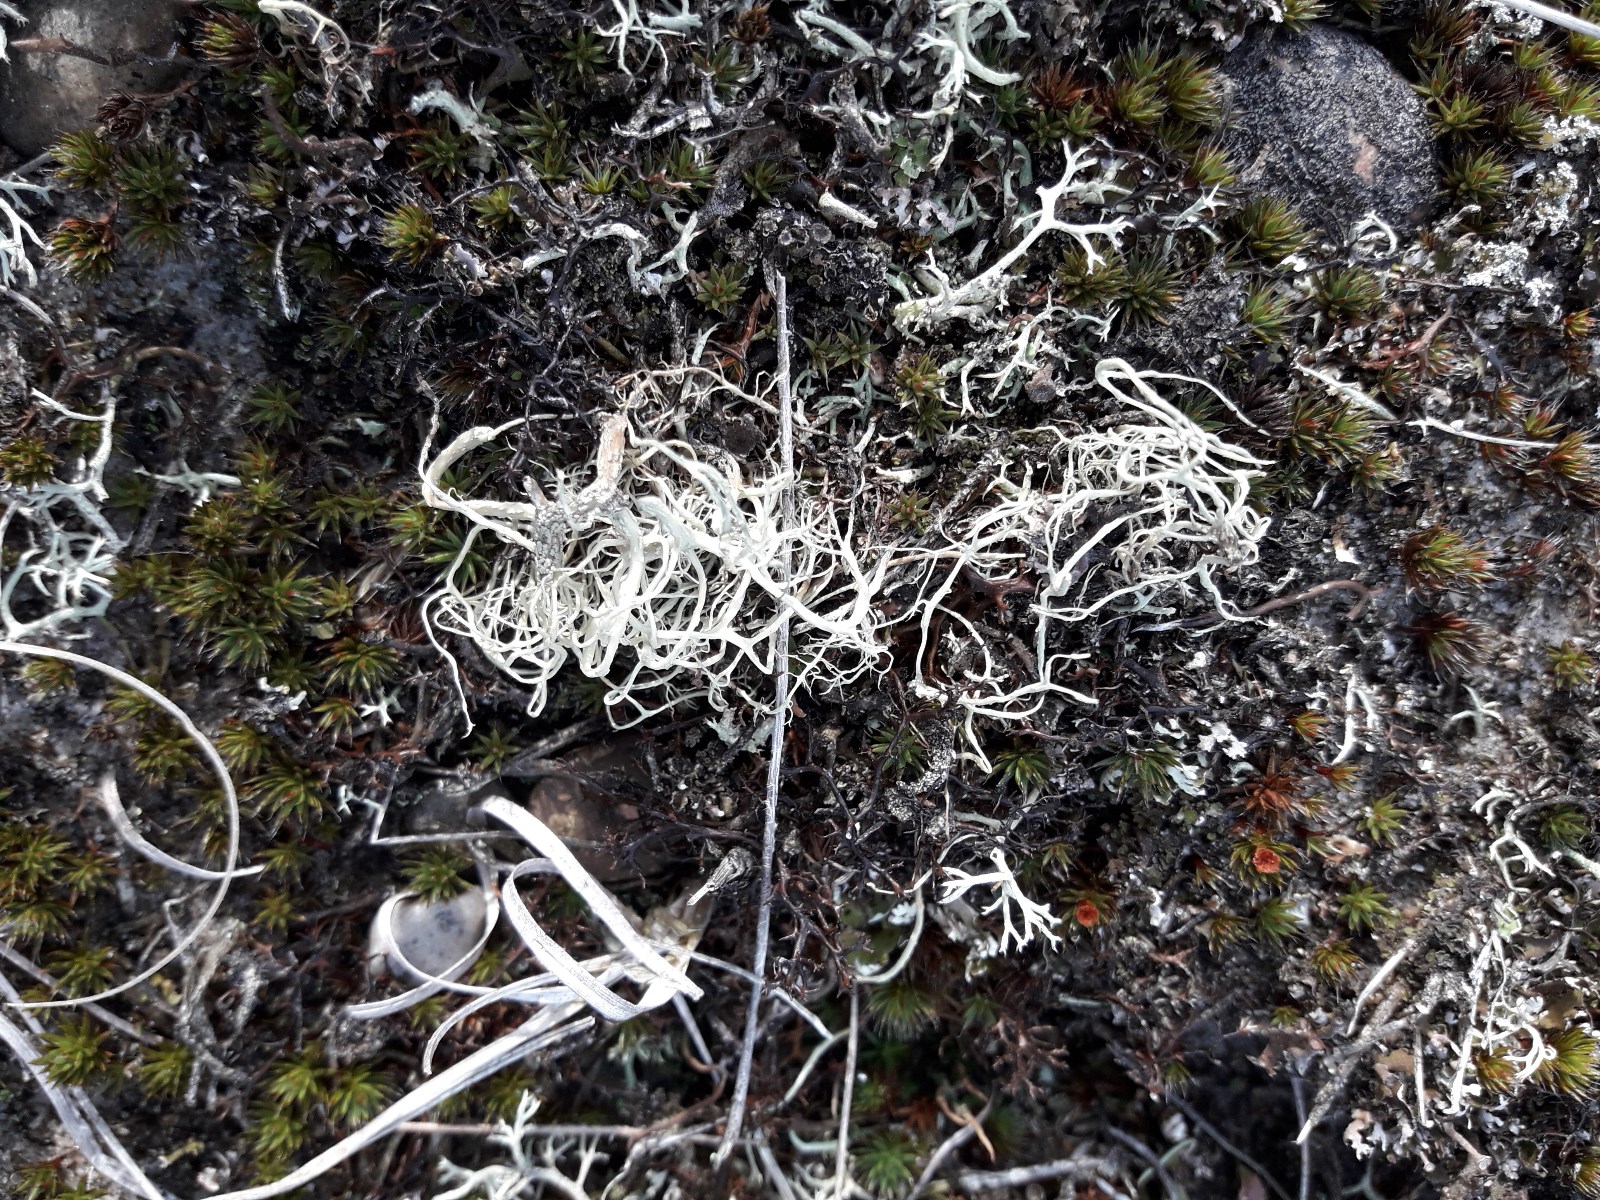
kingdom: Fungi
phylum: Ascomycota
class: Lecanoromycetes
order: Lecanorales
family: Parmeliaceae
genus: Alectoria
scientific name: Alectoria sarmentosa
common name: gulgrøn mankelav
